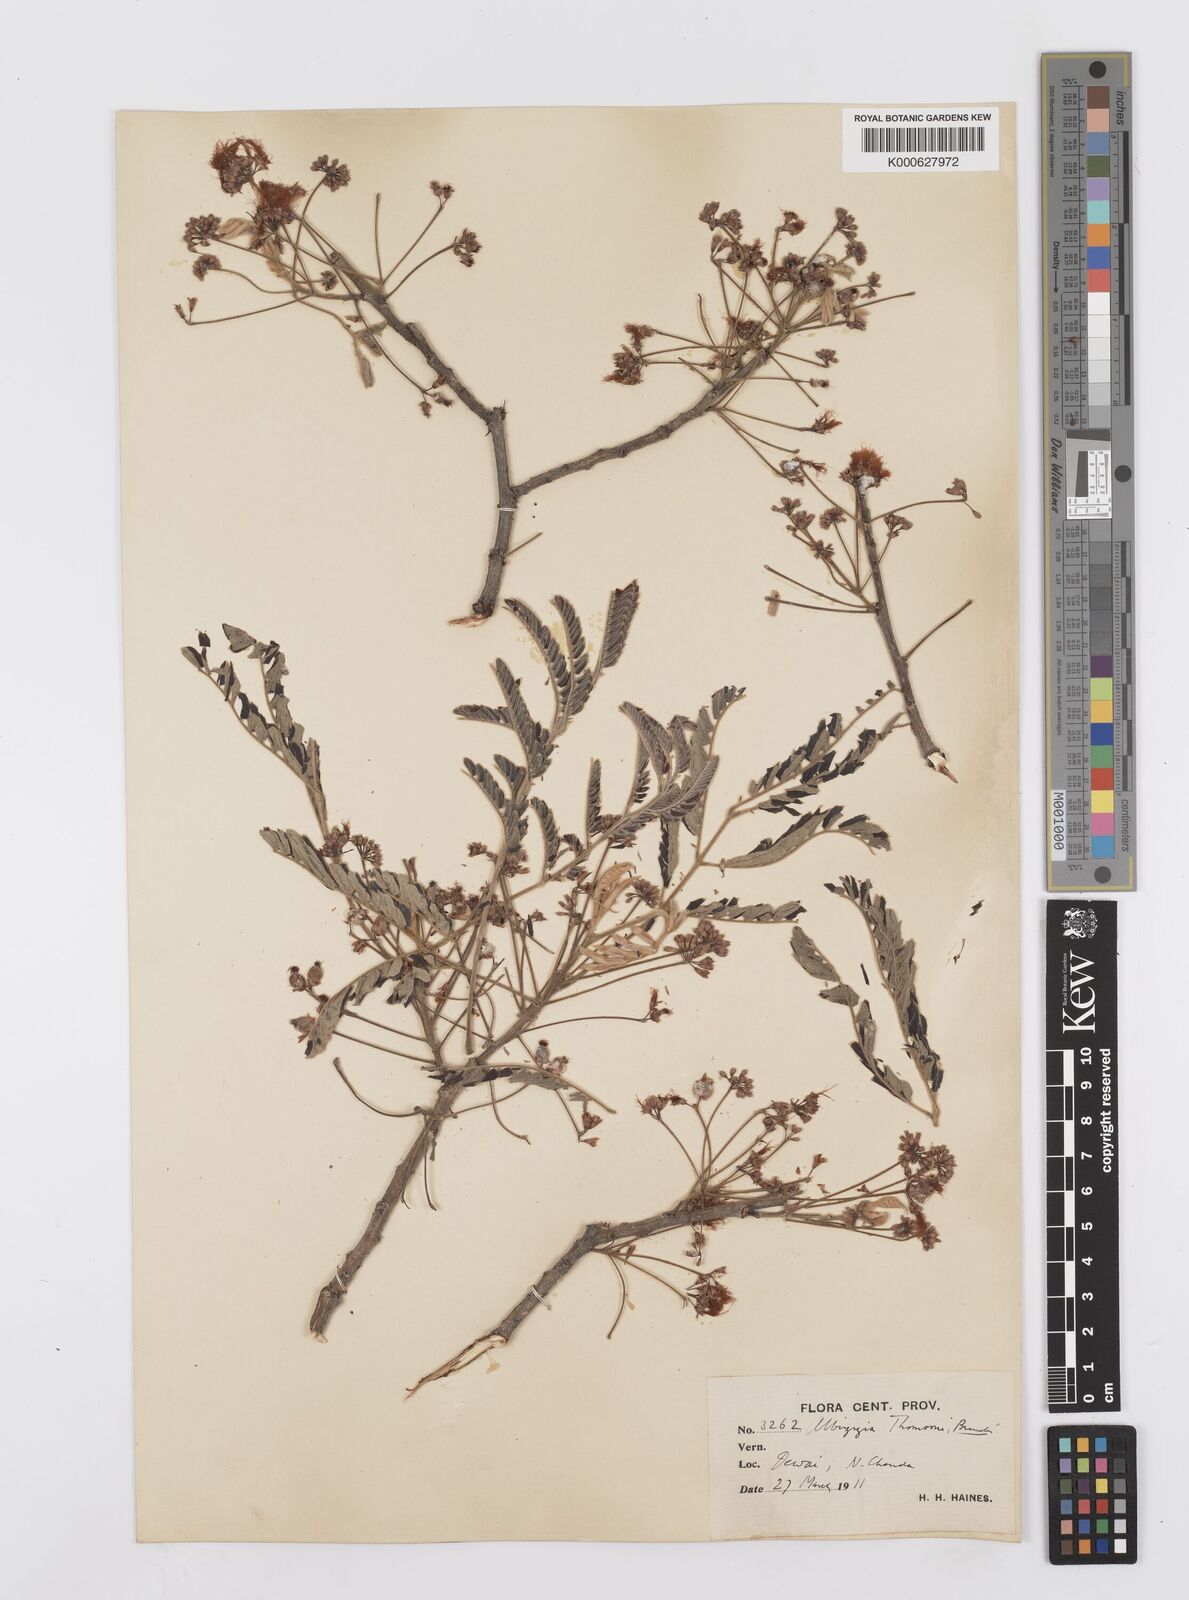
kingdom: Plantae
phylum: Tracheophyta
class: Magnoliopsida
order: Fabales
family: Fabaceae
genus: Albizia
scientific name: Albizia thompsonii
